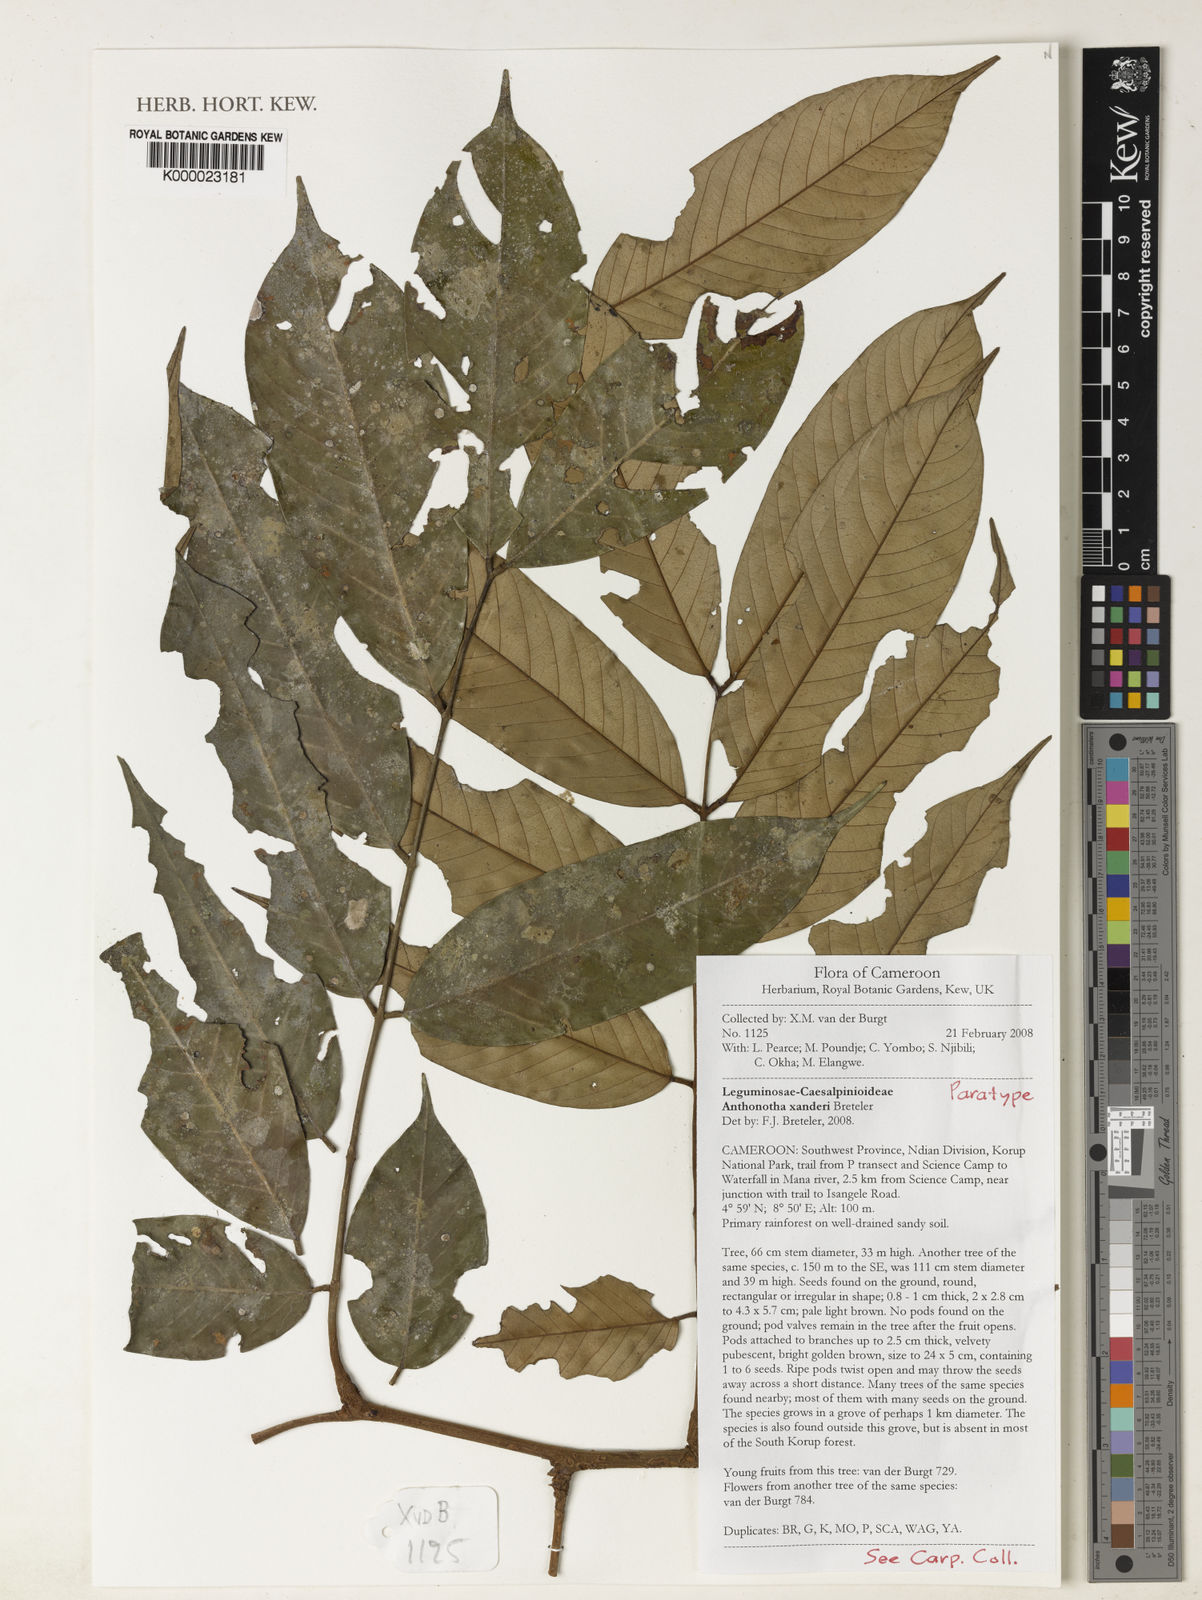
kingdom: Plantae
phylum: Tracheophyta
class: Magnoliopsida
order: Fabales
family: Fabaceae
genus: Anthonotha
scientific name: Anthonotha xanderi
